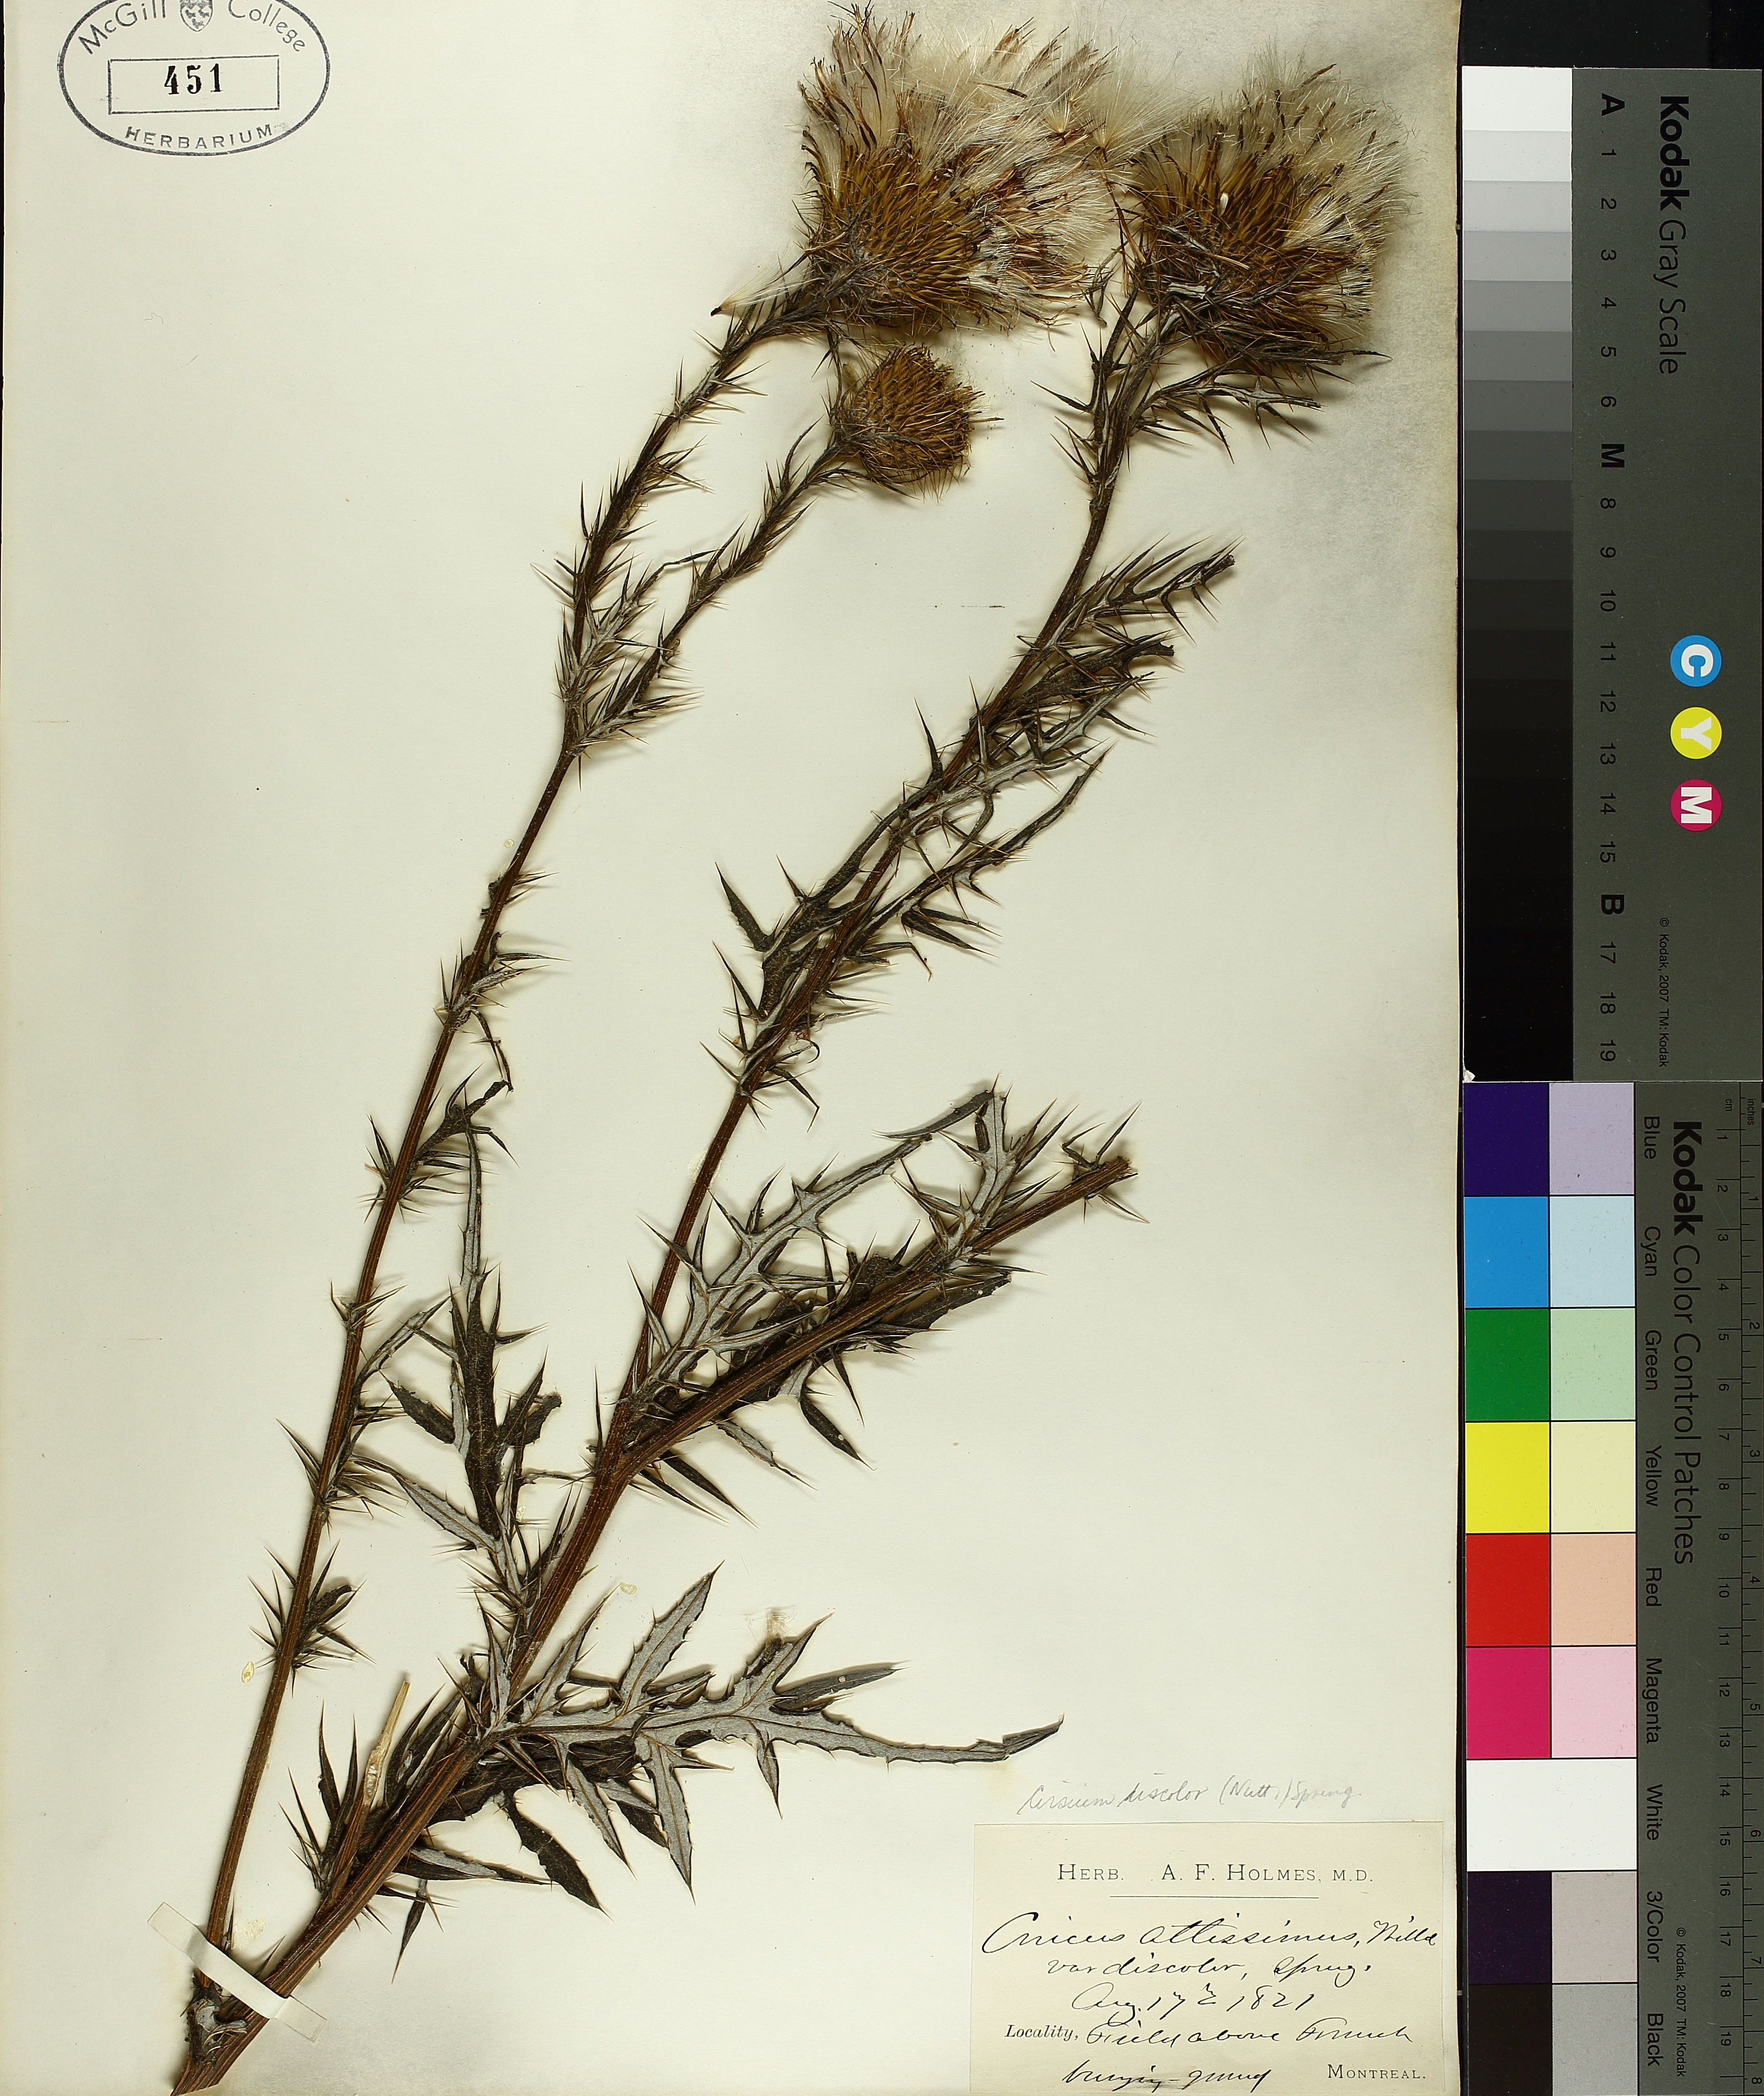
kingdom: Plantae
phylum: Tracheophyta
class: Magnoliopsida
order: Asterales
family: Asteraceae
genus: Cirsium
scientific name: Cirsium discolor
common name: Field thistle
